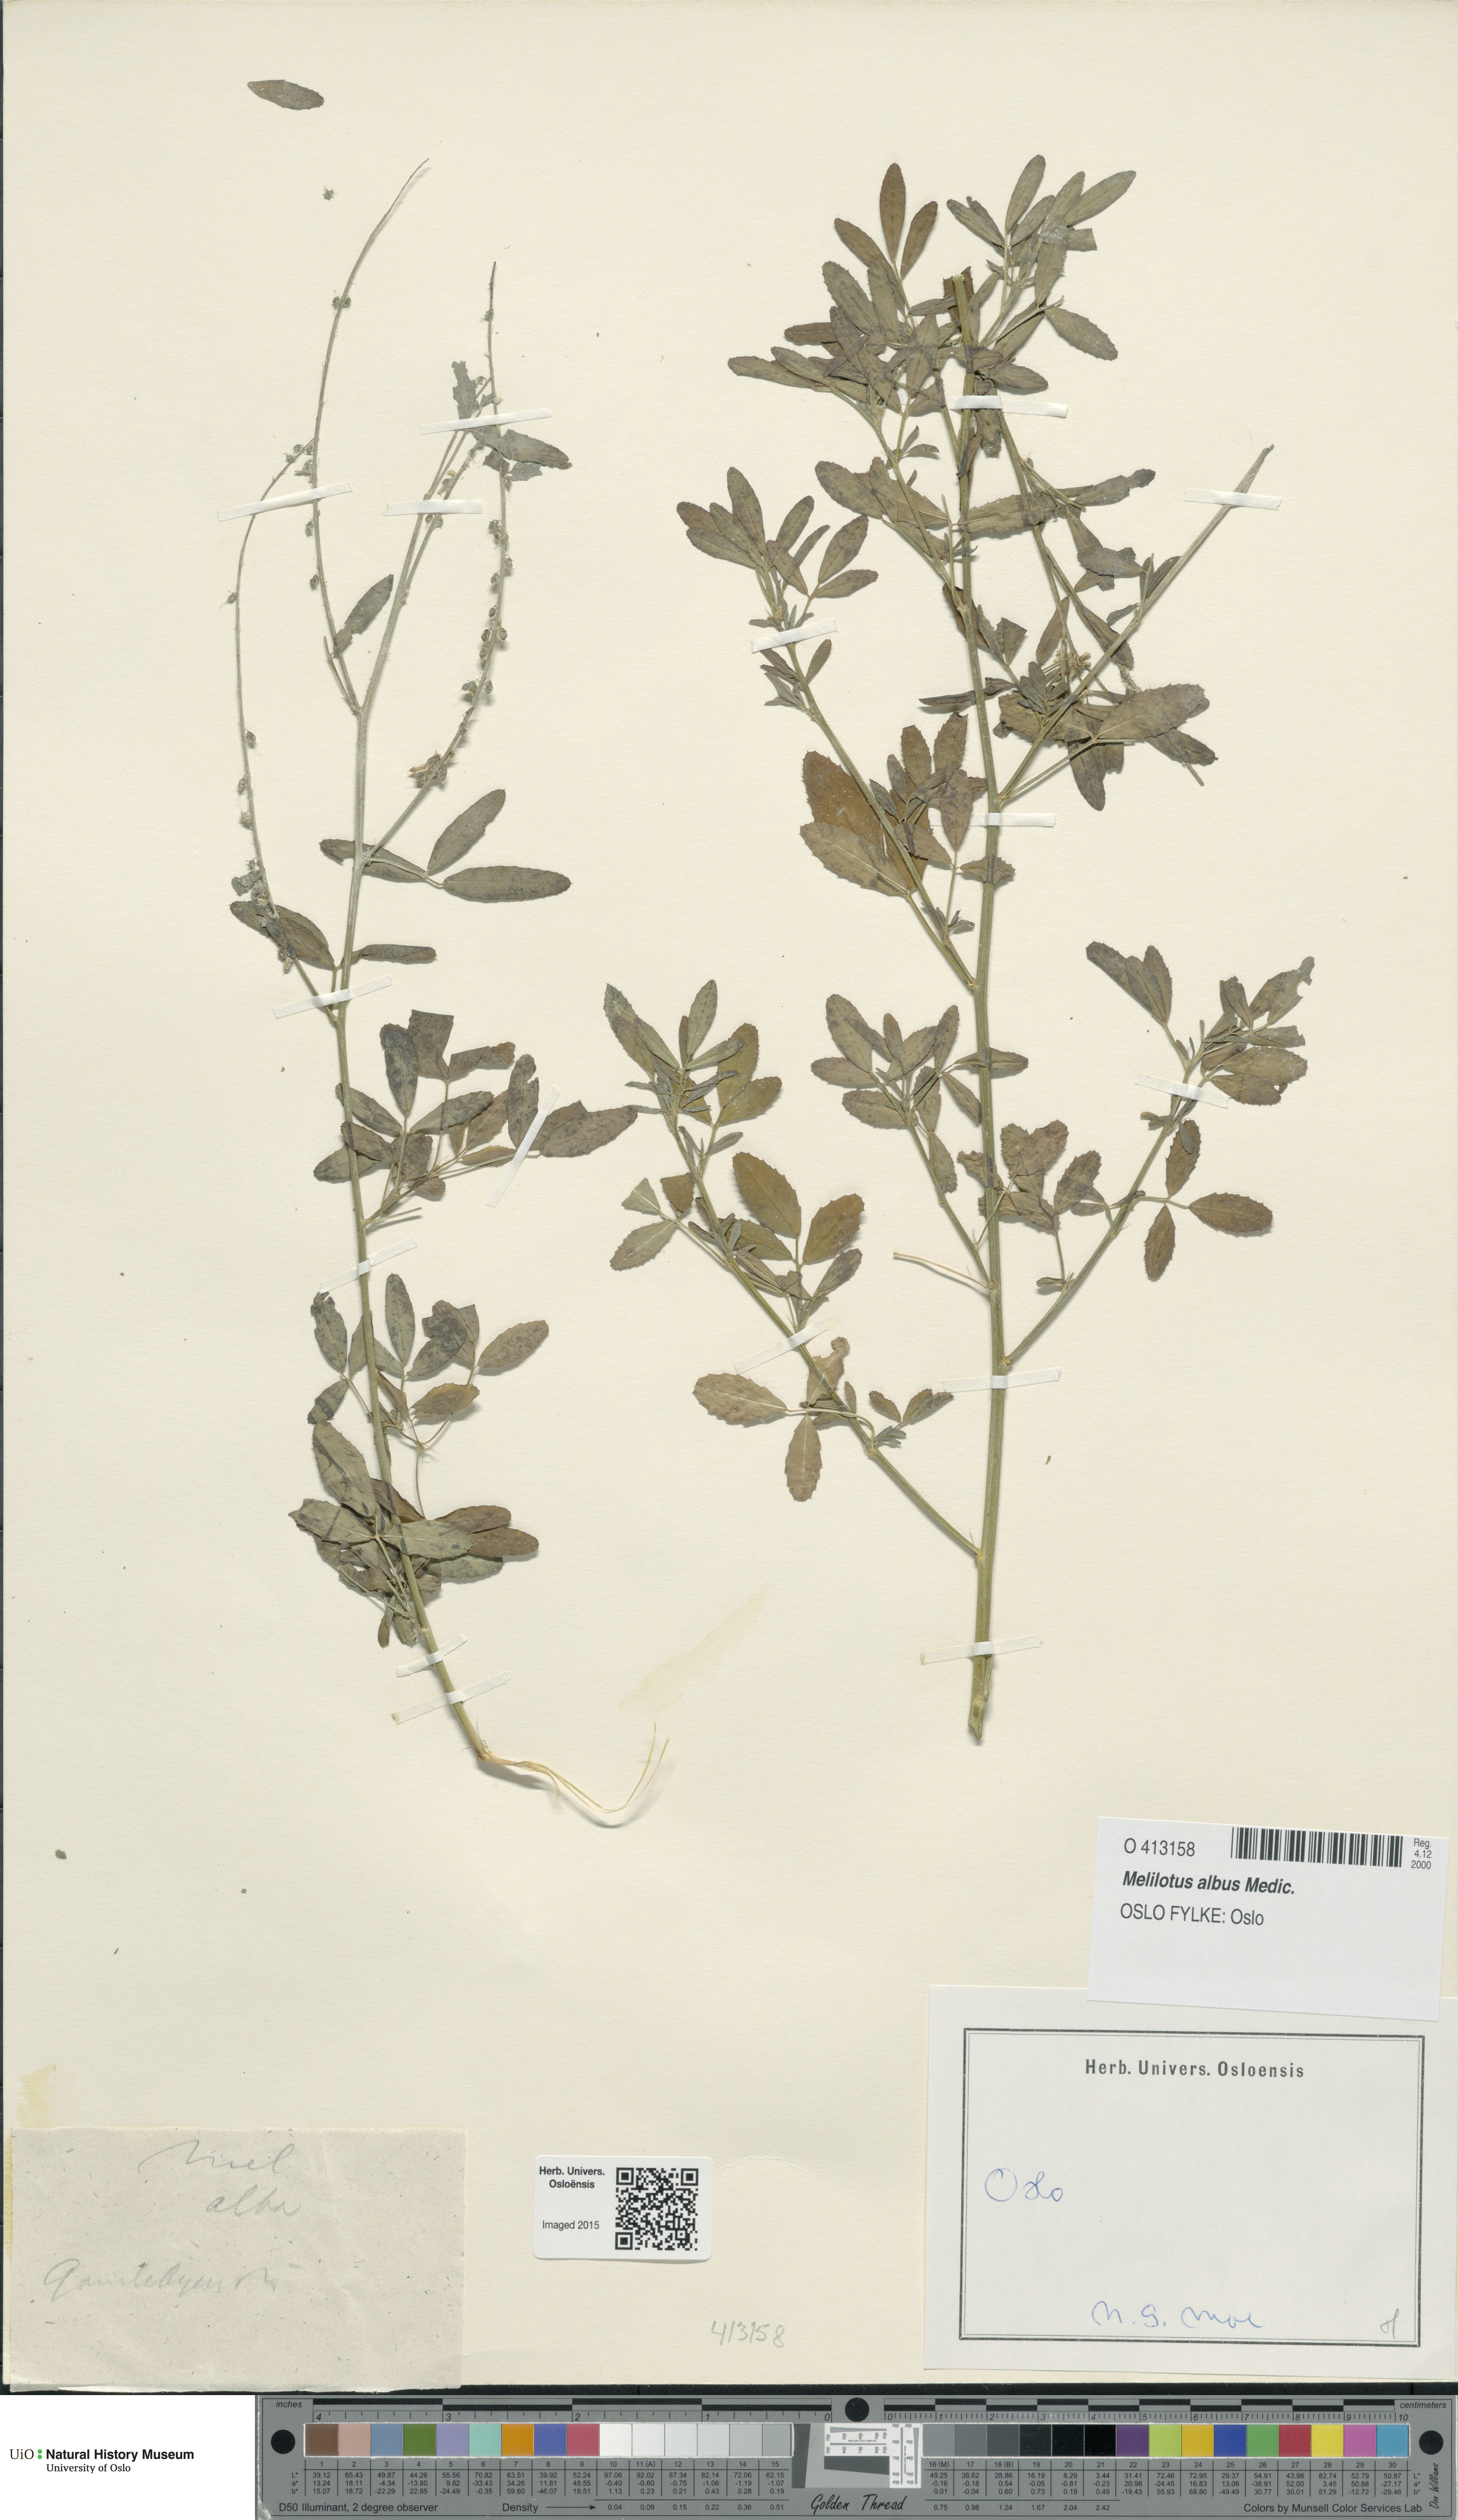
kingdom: Plantae
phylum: Tracheophyta
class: Magnoliopsida
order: Fabales
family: Fabaceae
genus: Melilotus
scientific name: Melilotus albus
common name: White melilot
